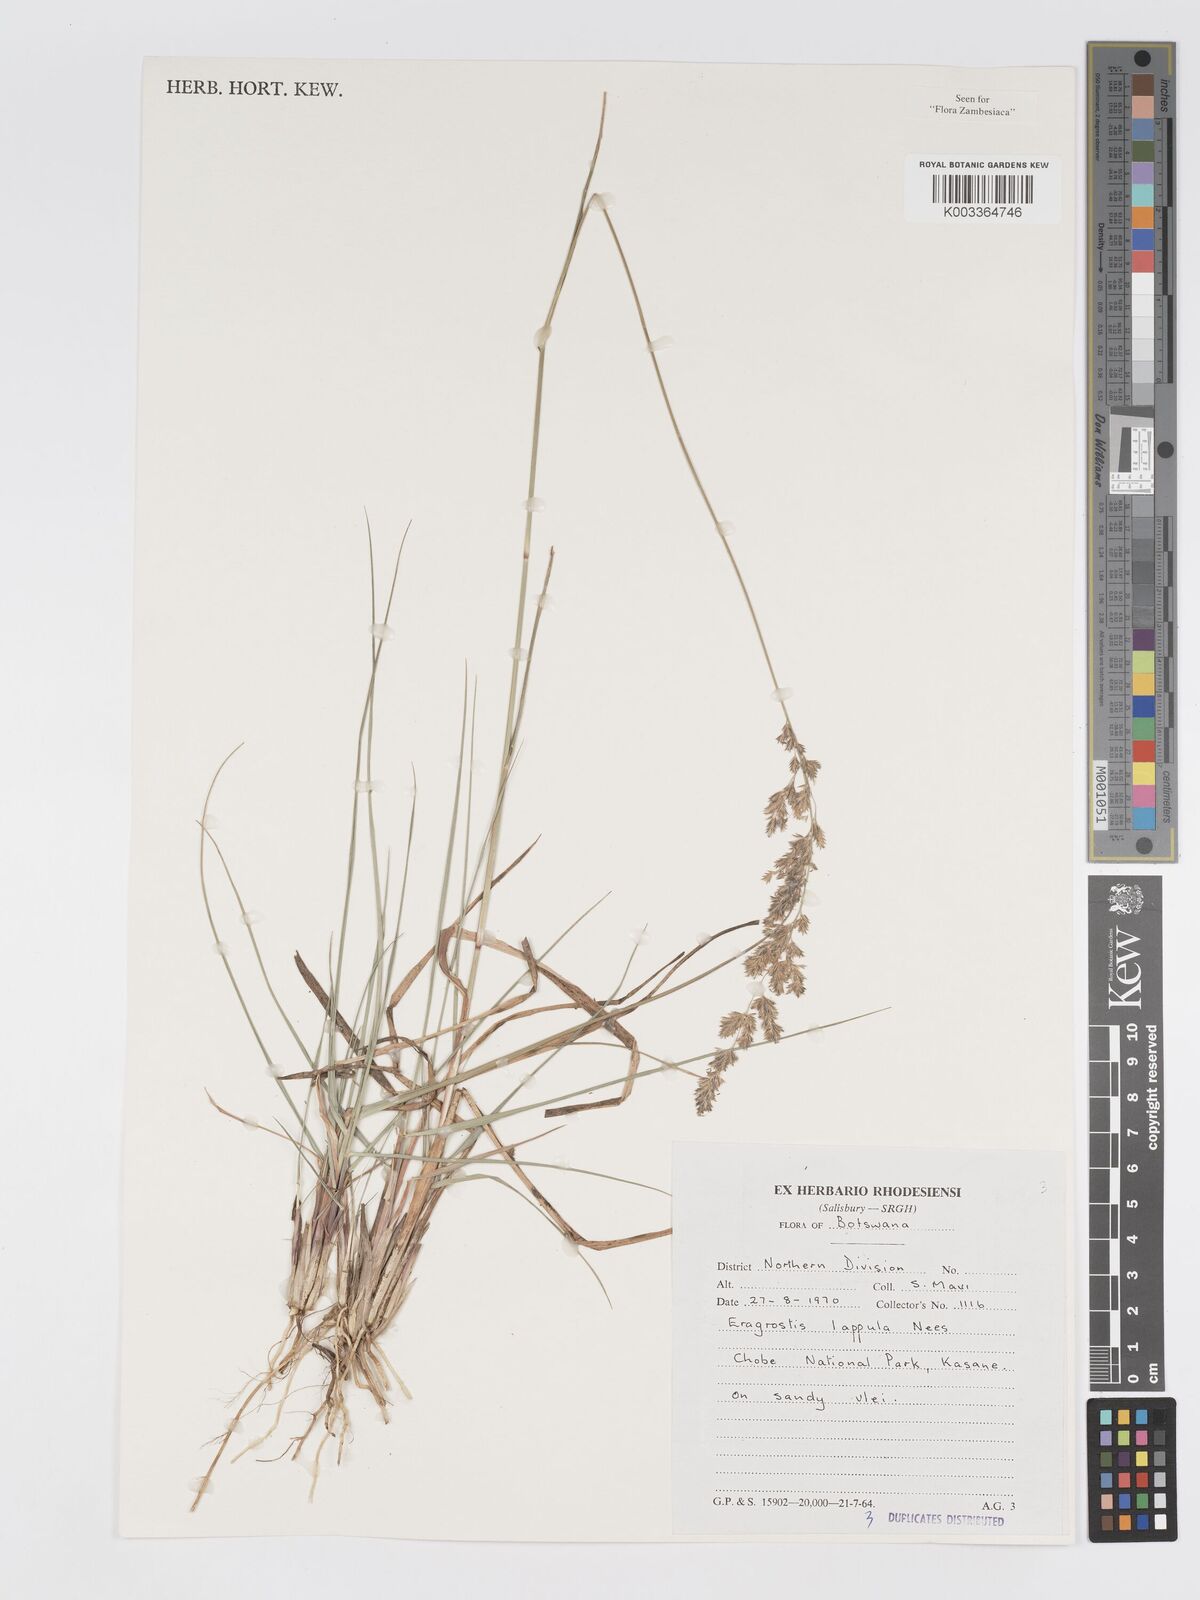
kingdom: Plantae
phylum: Tracheophyta
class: Liliopsida
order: Poales
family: Poaceae
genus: Eragrostis
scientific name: Eragrostis lappula
